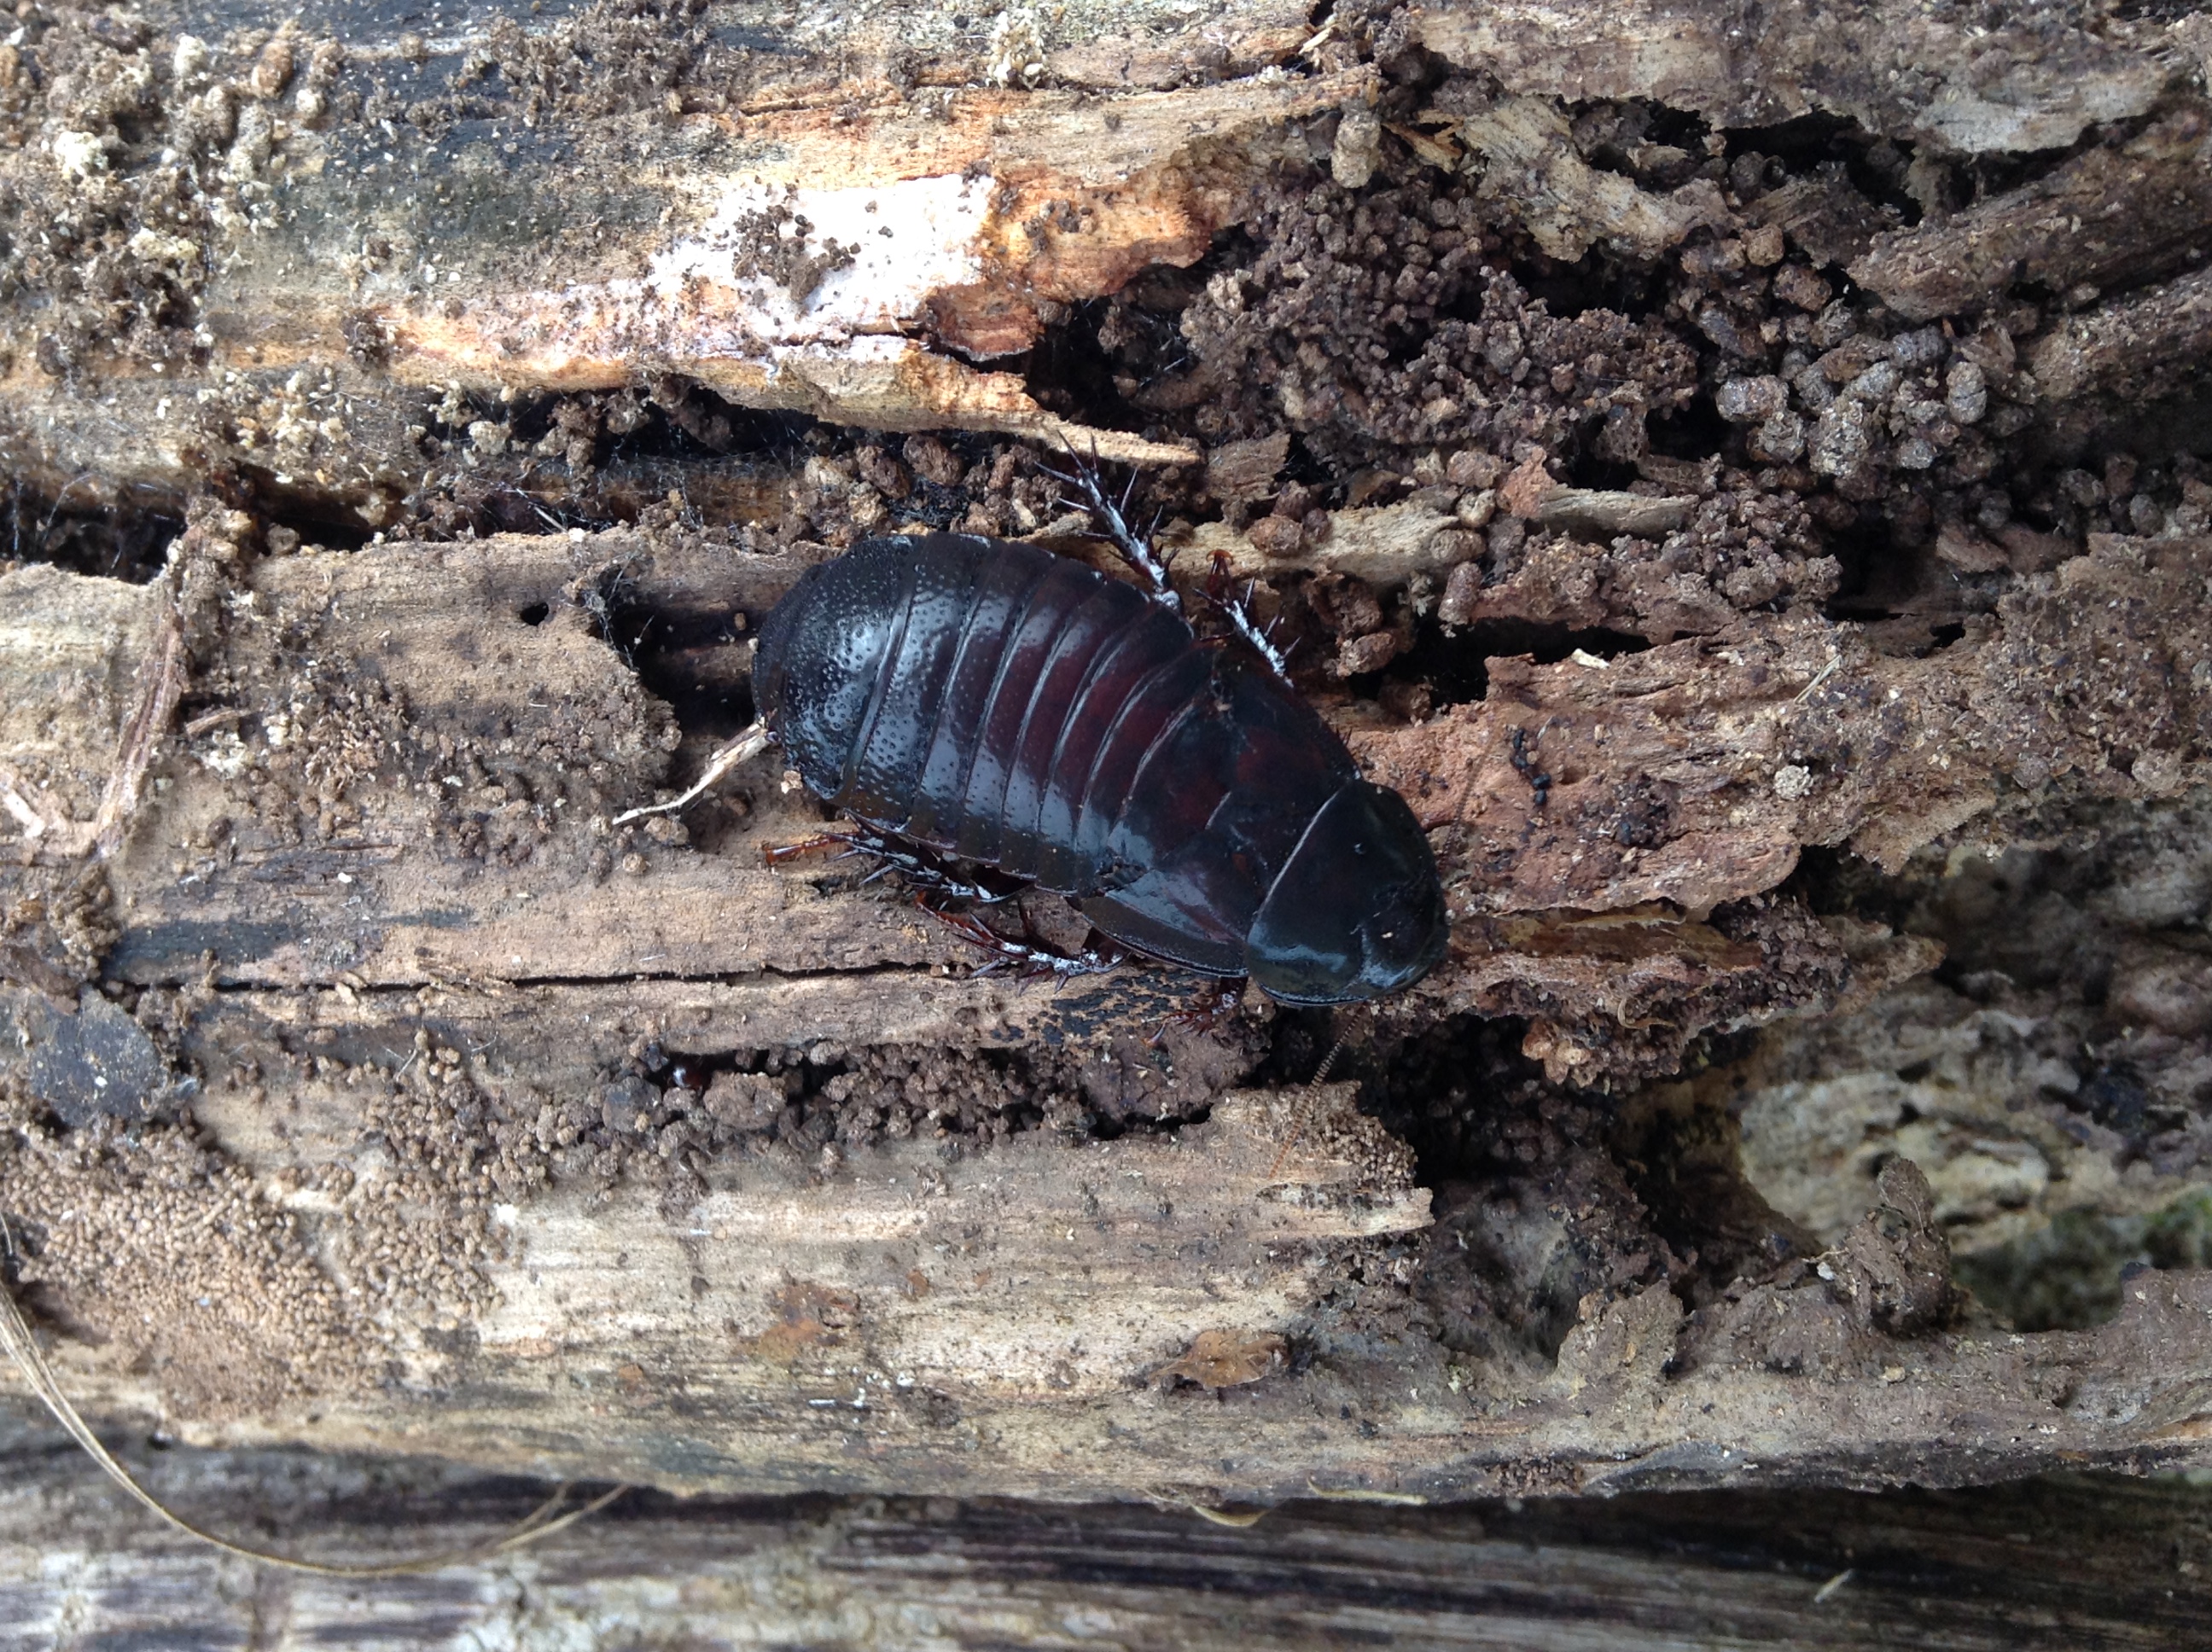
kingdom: Animalia
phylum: Arthropoda
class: Insecta
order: Blattodea
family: Blaberidae
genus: Panesthia
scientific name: Panesthia cribrata
